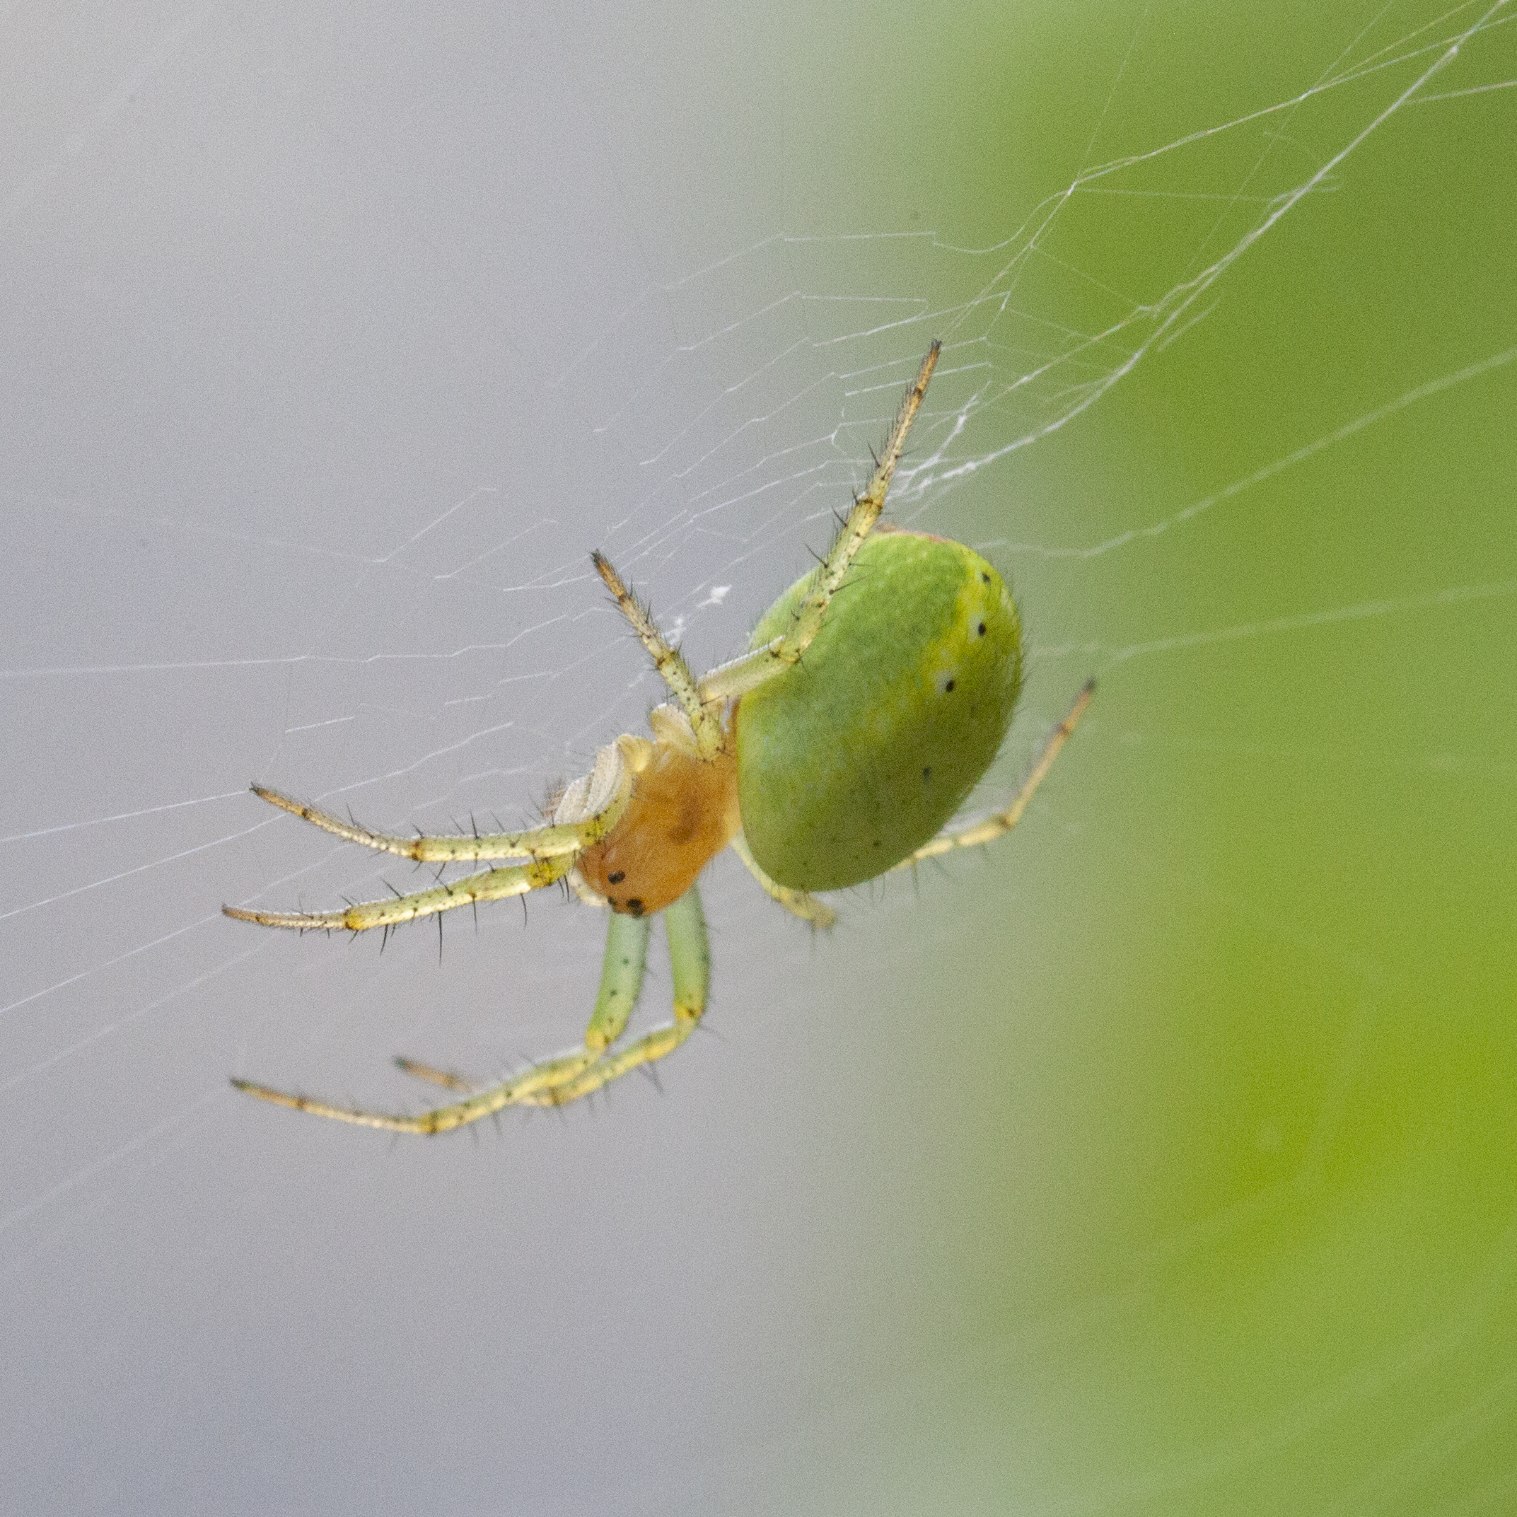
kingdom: Animalia
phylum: Arthropoda
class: Arachnida
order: Araneae
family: Araneidae
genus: Araniella
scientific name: Araniella
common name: Agurkeedderkopslægten
